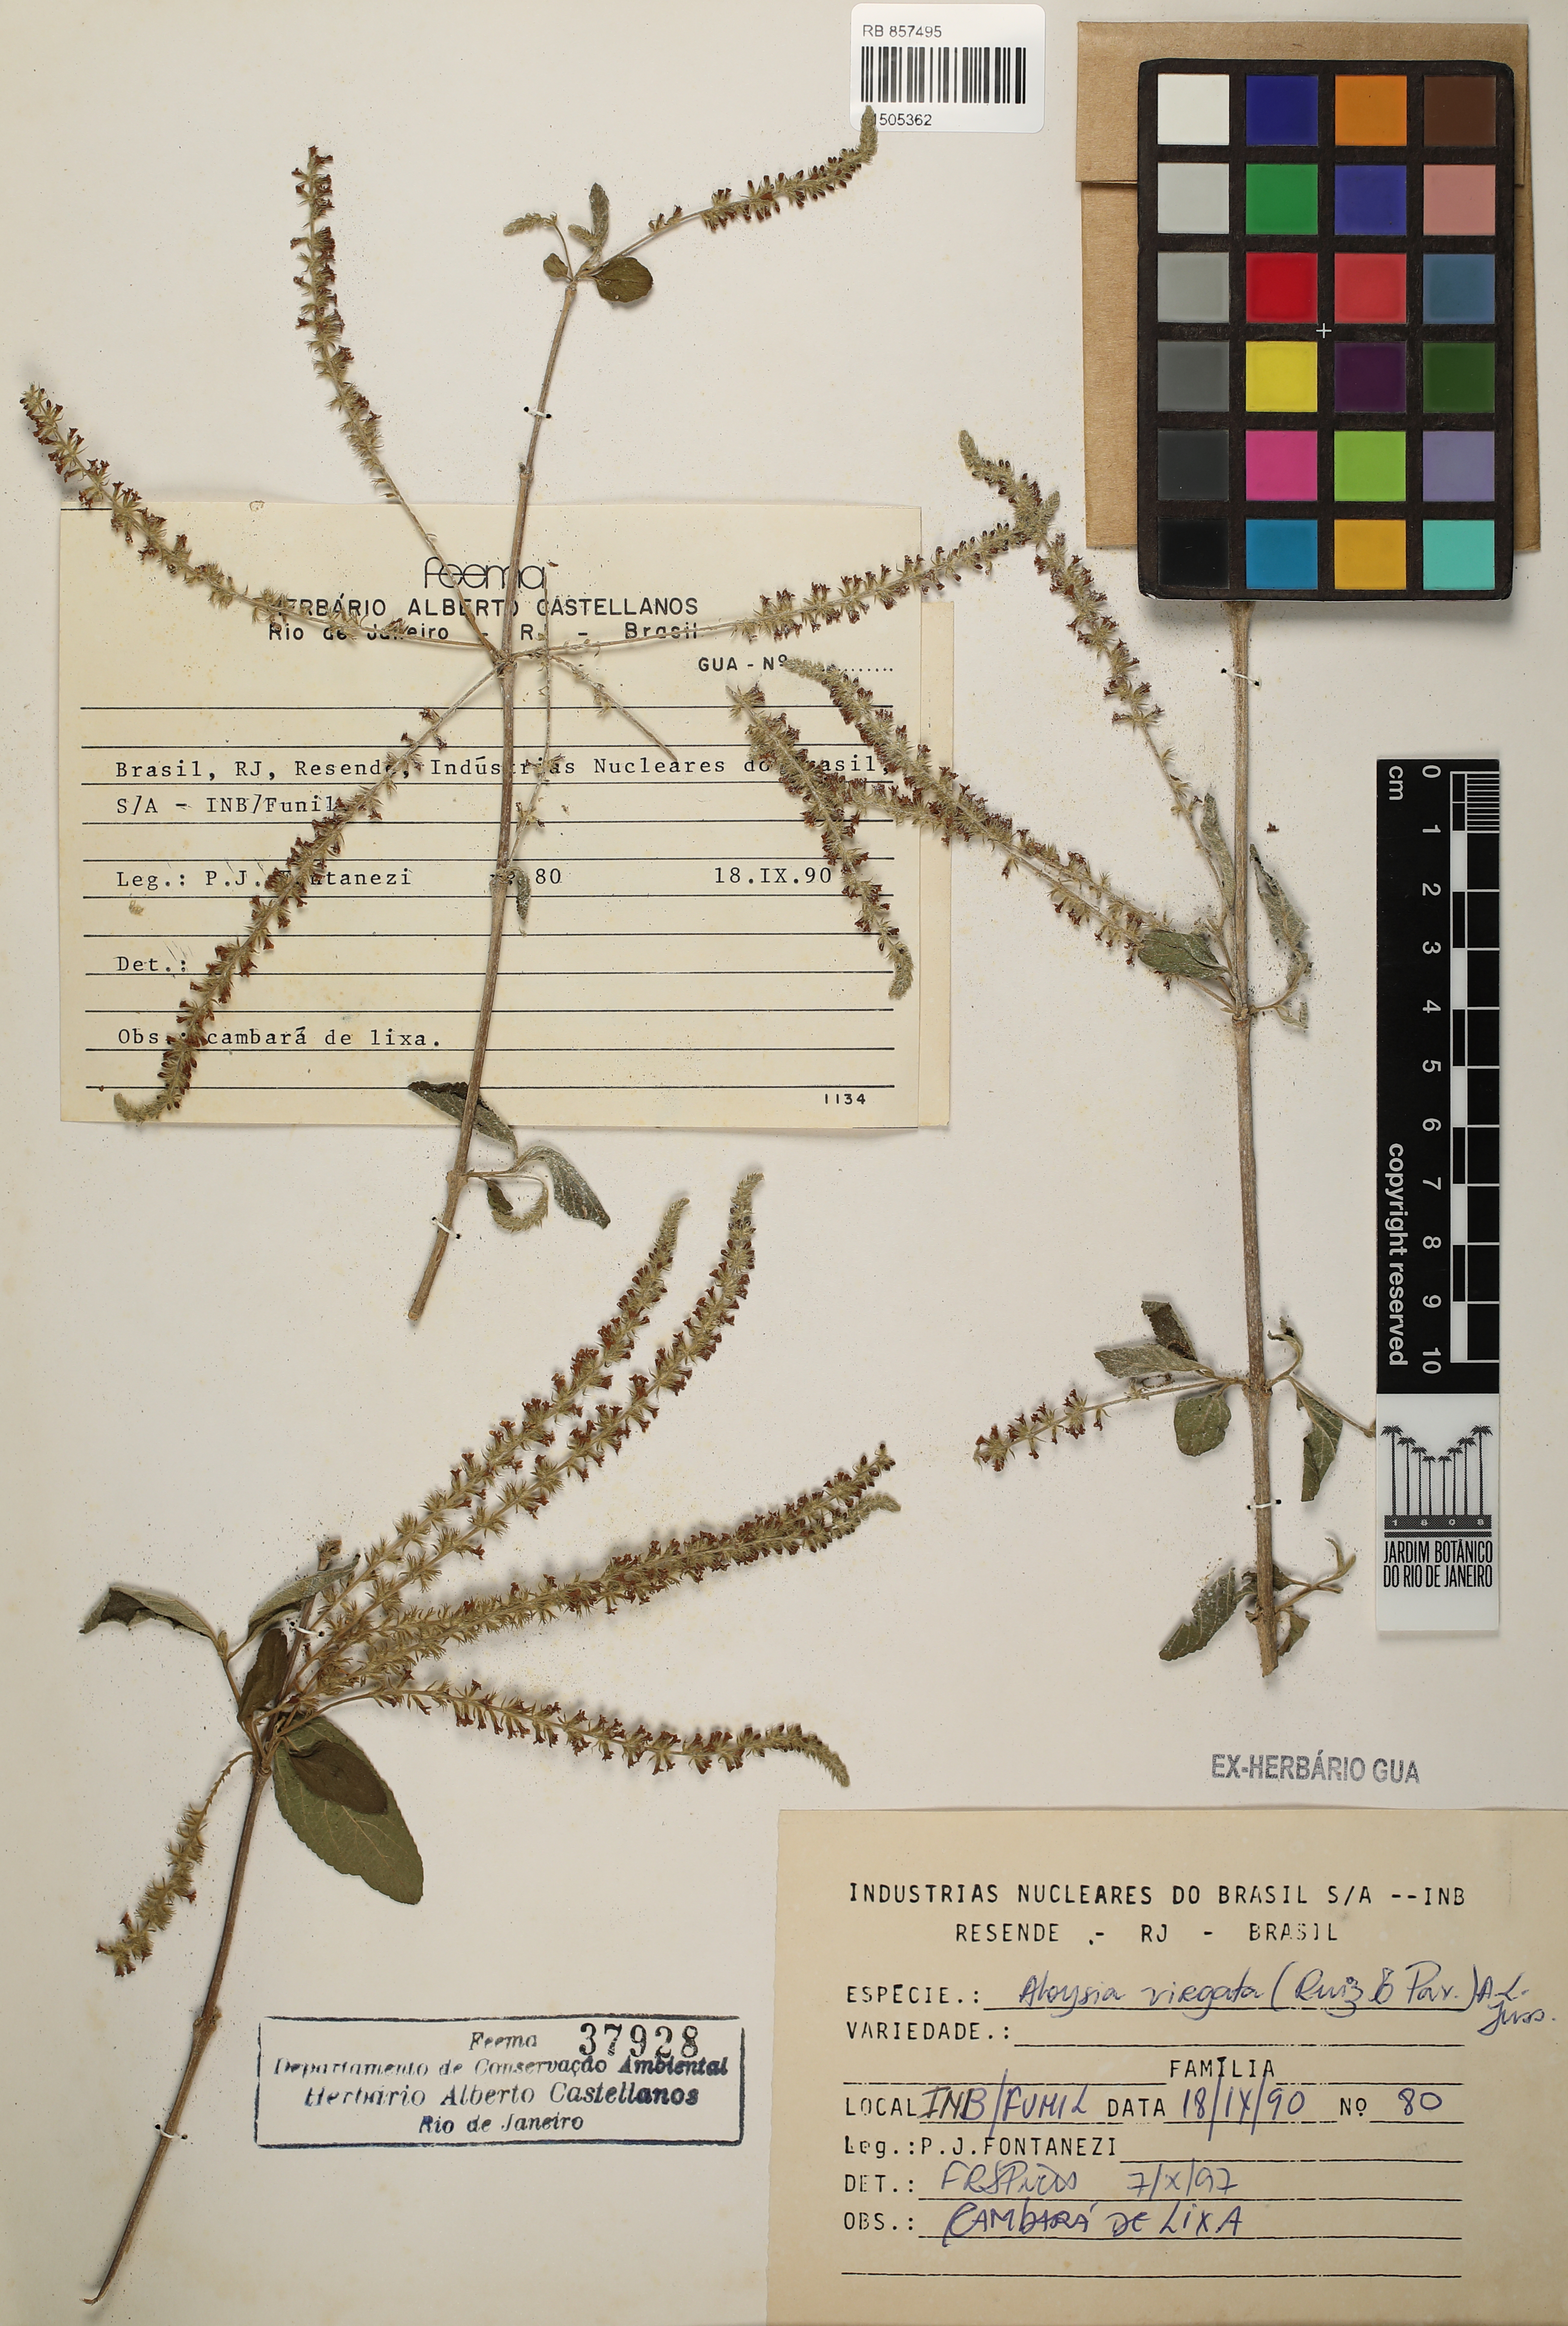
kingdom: Plantae
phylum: Tracheophyta
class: Magnoliopsida
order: Lamiales
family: Verbenaceae
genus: Aloysia
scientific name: Aloysia virgata
